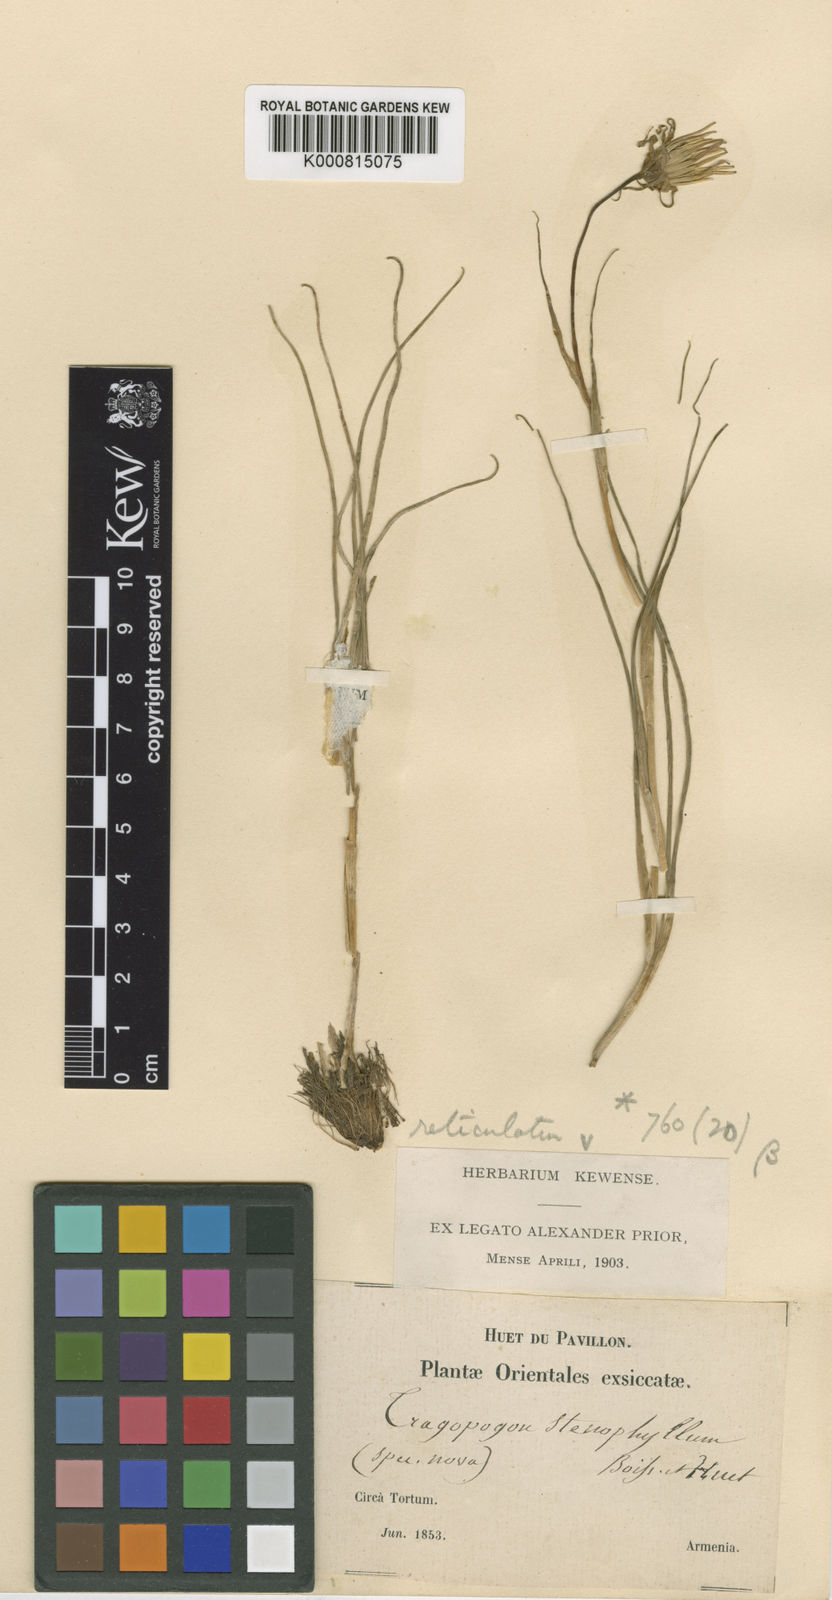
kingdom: Plantae
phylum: Tracheophyta
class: Magnoliopsida
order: Asterales
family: Asteraceae
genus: Tragopogon
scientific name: Tragopogon reticulatus
